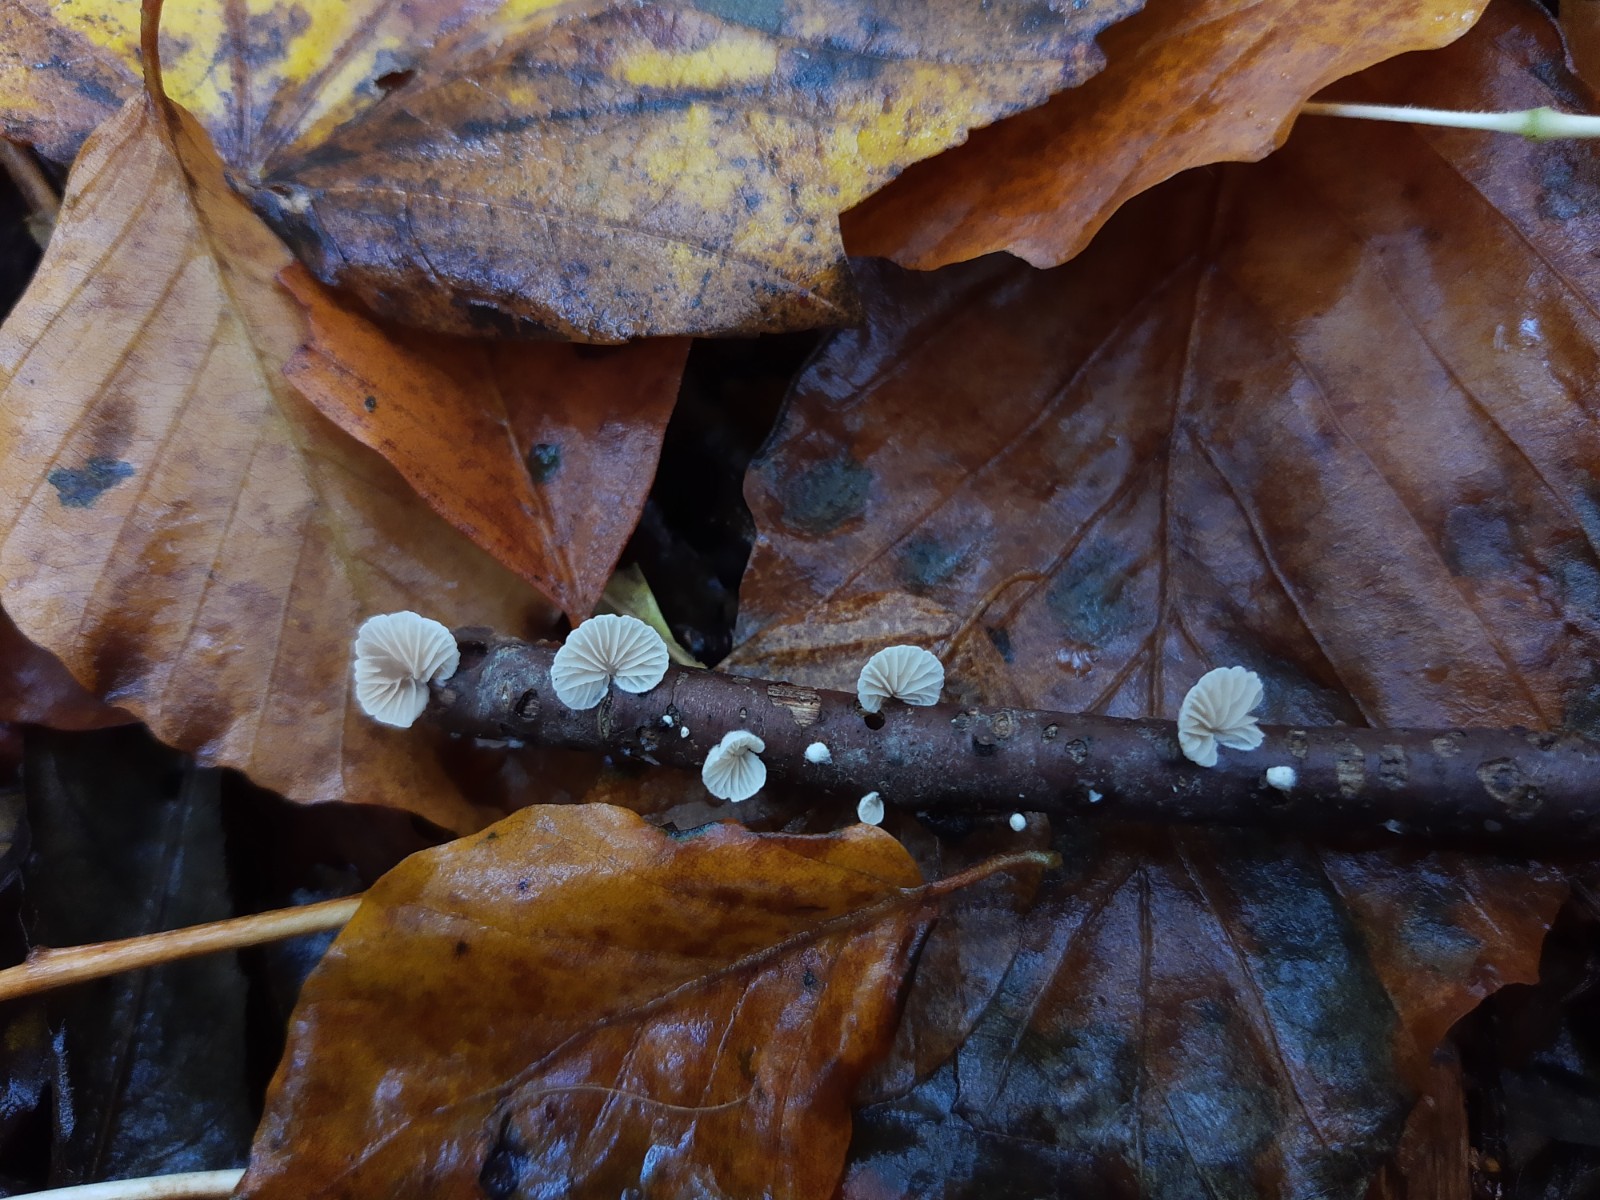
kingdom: Fungi
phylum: Basidiomycota
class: Agaricomycetes
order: Agaricales
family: Crepidotaceae
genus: Crepidotus
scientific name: Crepidotus
